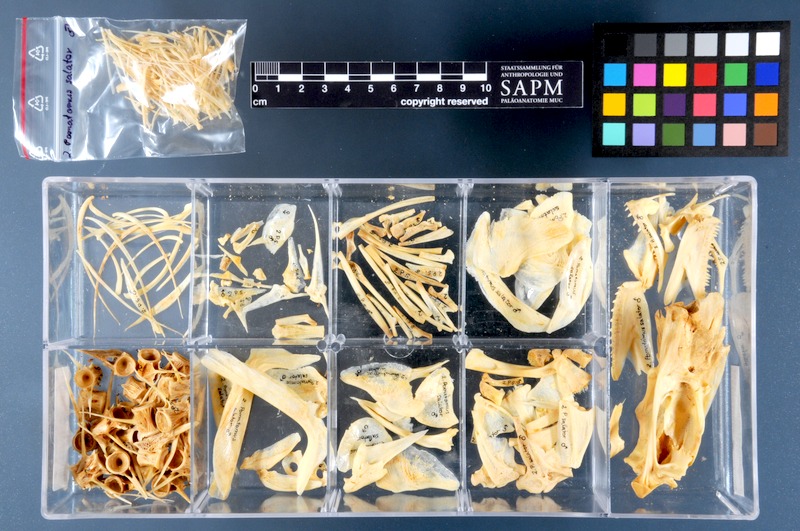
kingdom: Animalia
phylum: Chordata
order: Perciformes
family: Pomatomidae
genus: Pomatomus
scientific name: Pomatomus saltatrix
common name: Bluefish
